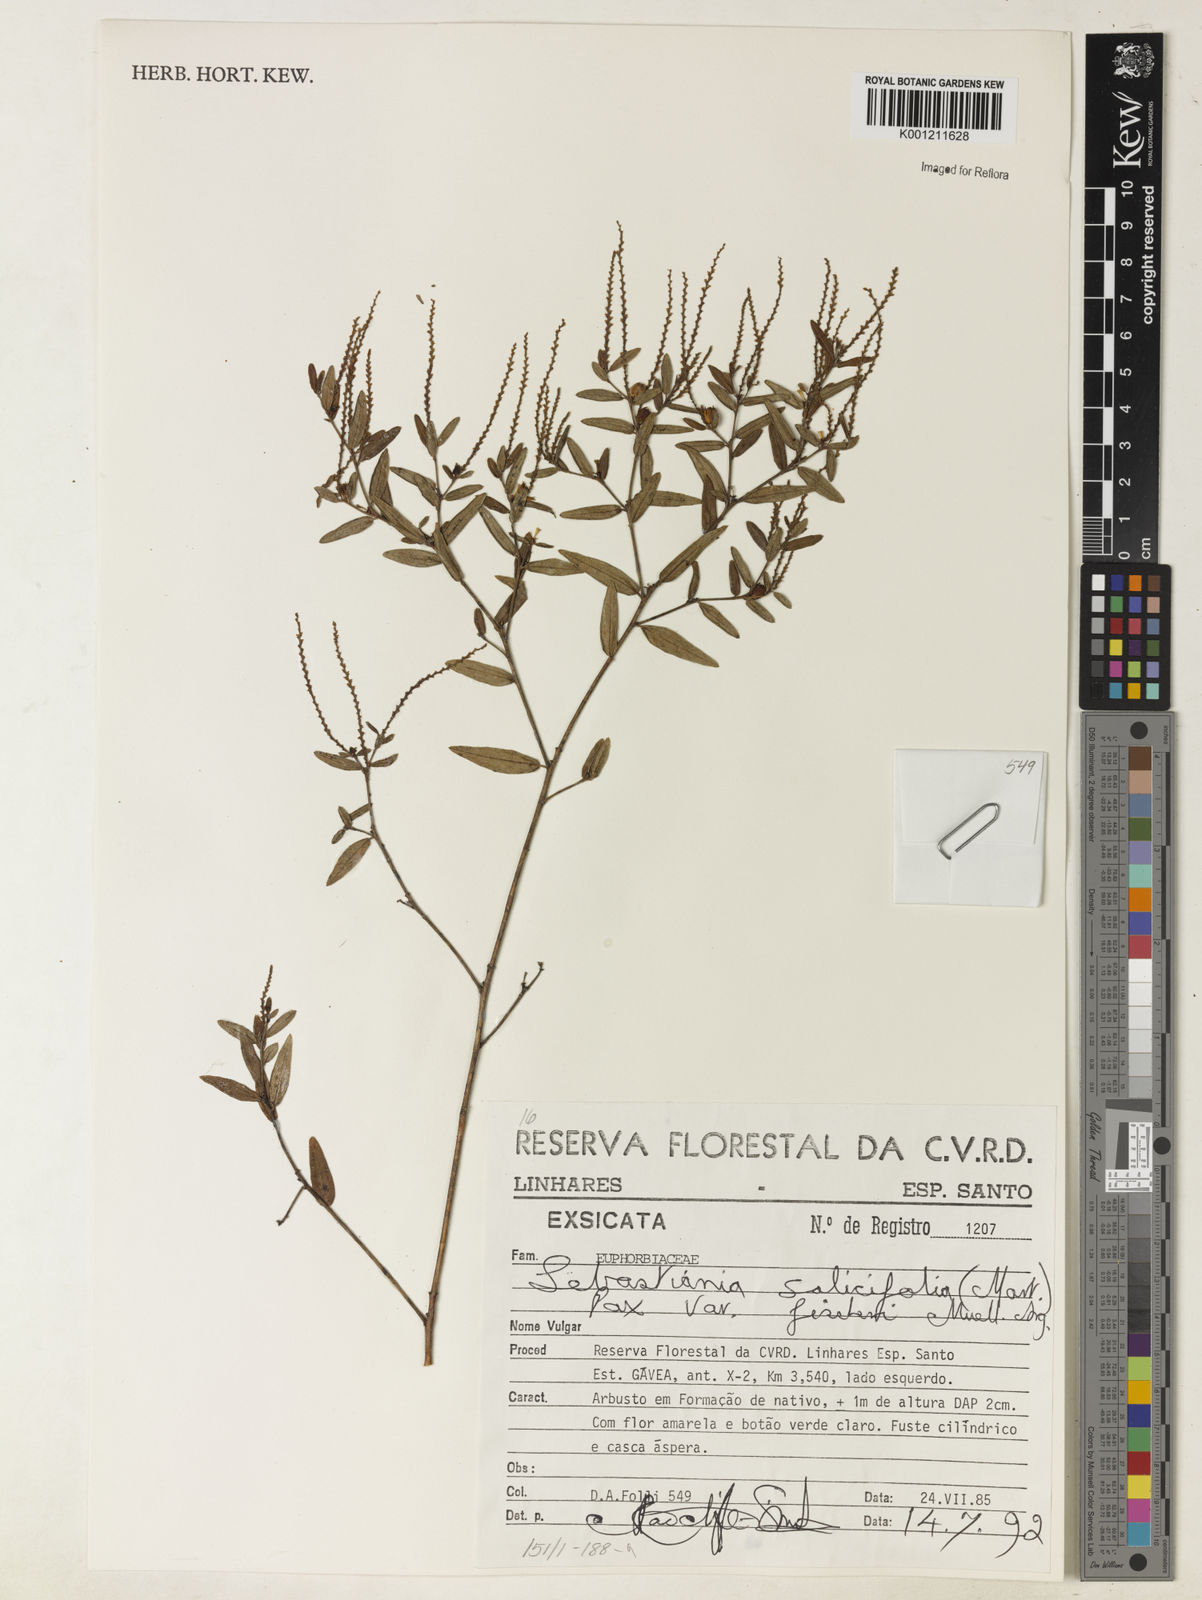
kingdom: Plantae
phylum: Tracheophyta
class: Magnoliopsida
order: Malpighiales
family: Euphorbiaceae
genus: Microstachys
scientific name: Microstachys
